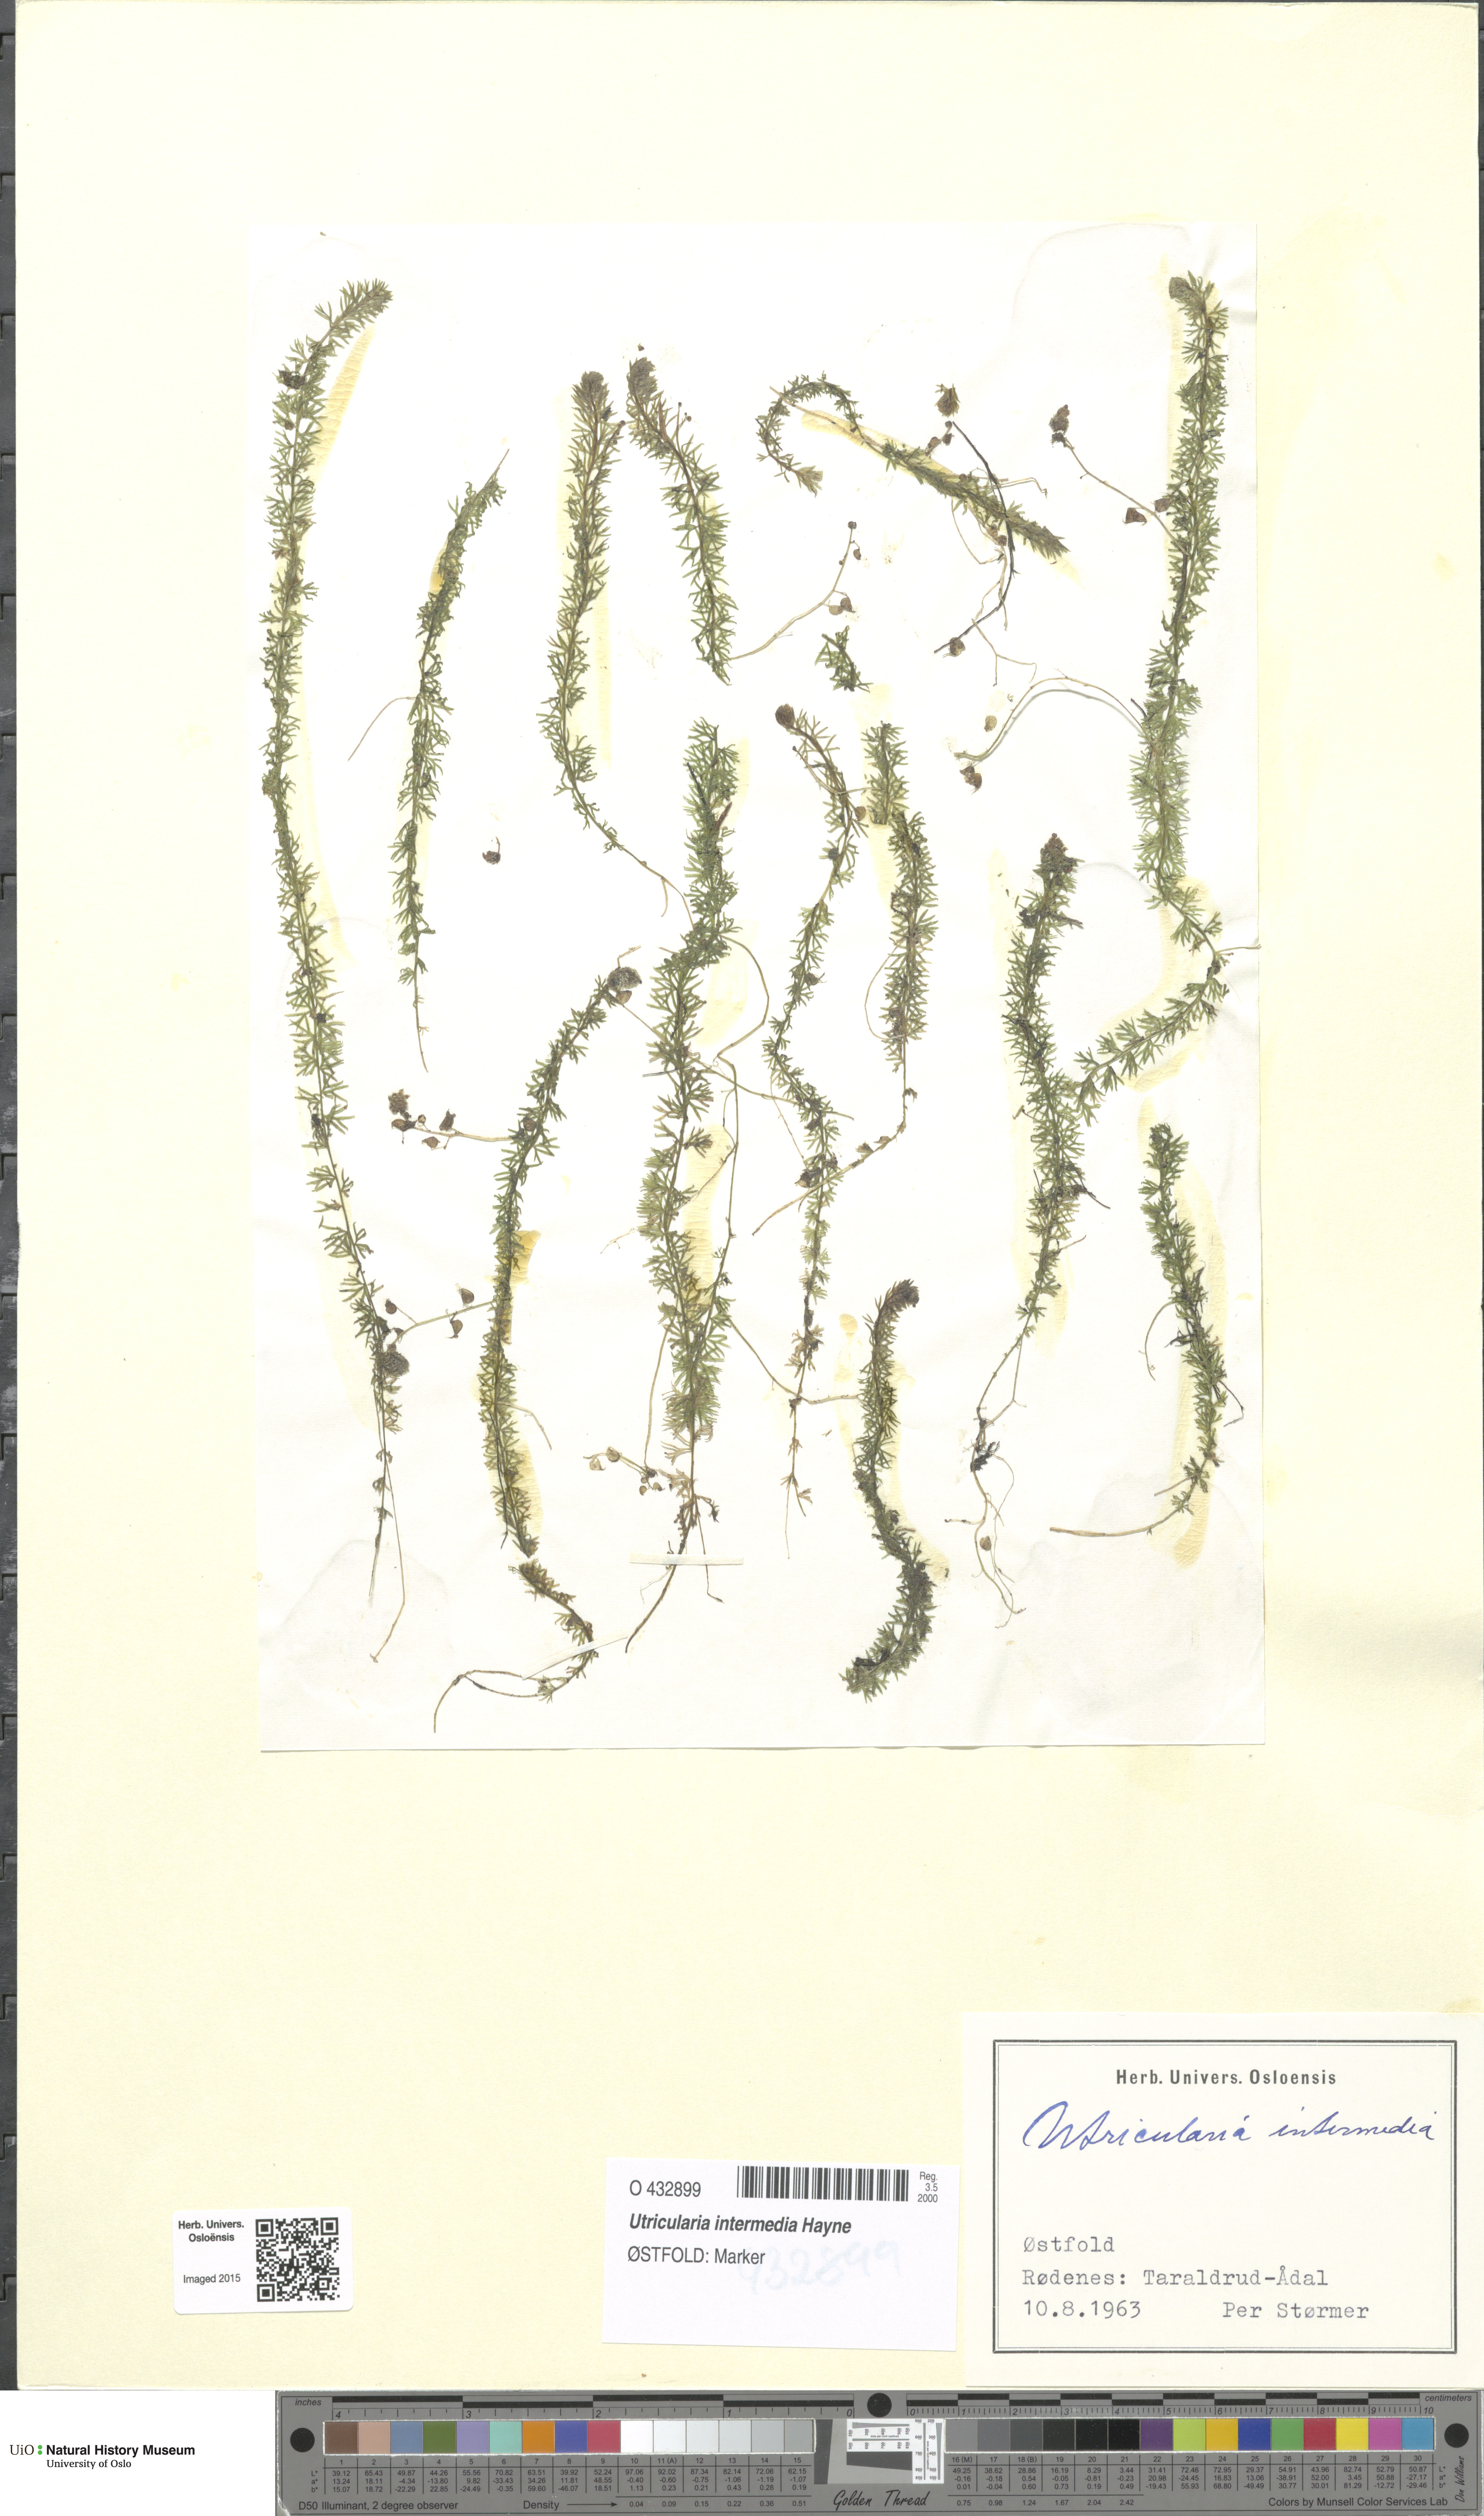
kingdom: Plantae
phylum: Tracheophyta
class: Magnoliopsida
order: Lamiales
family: Lentibulariaceae
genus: Utricularia
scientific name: Utricularia intermedia
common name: Intermediate bladderwort
